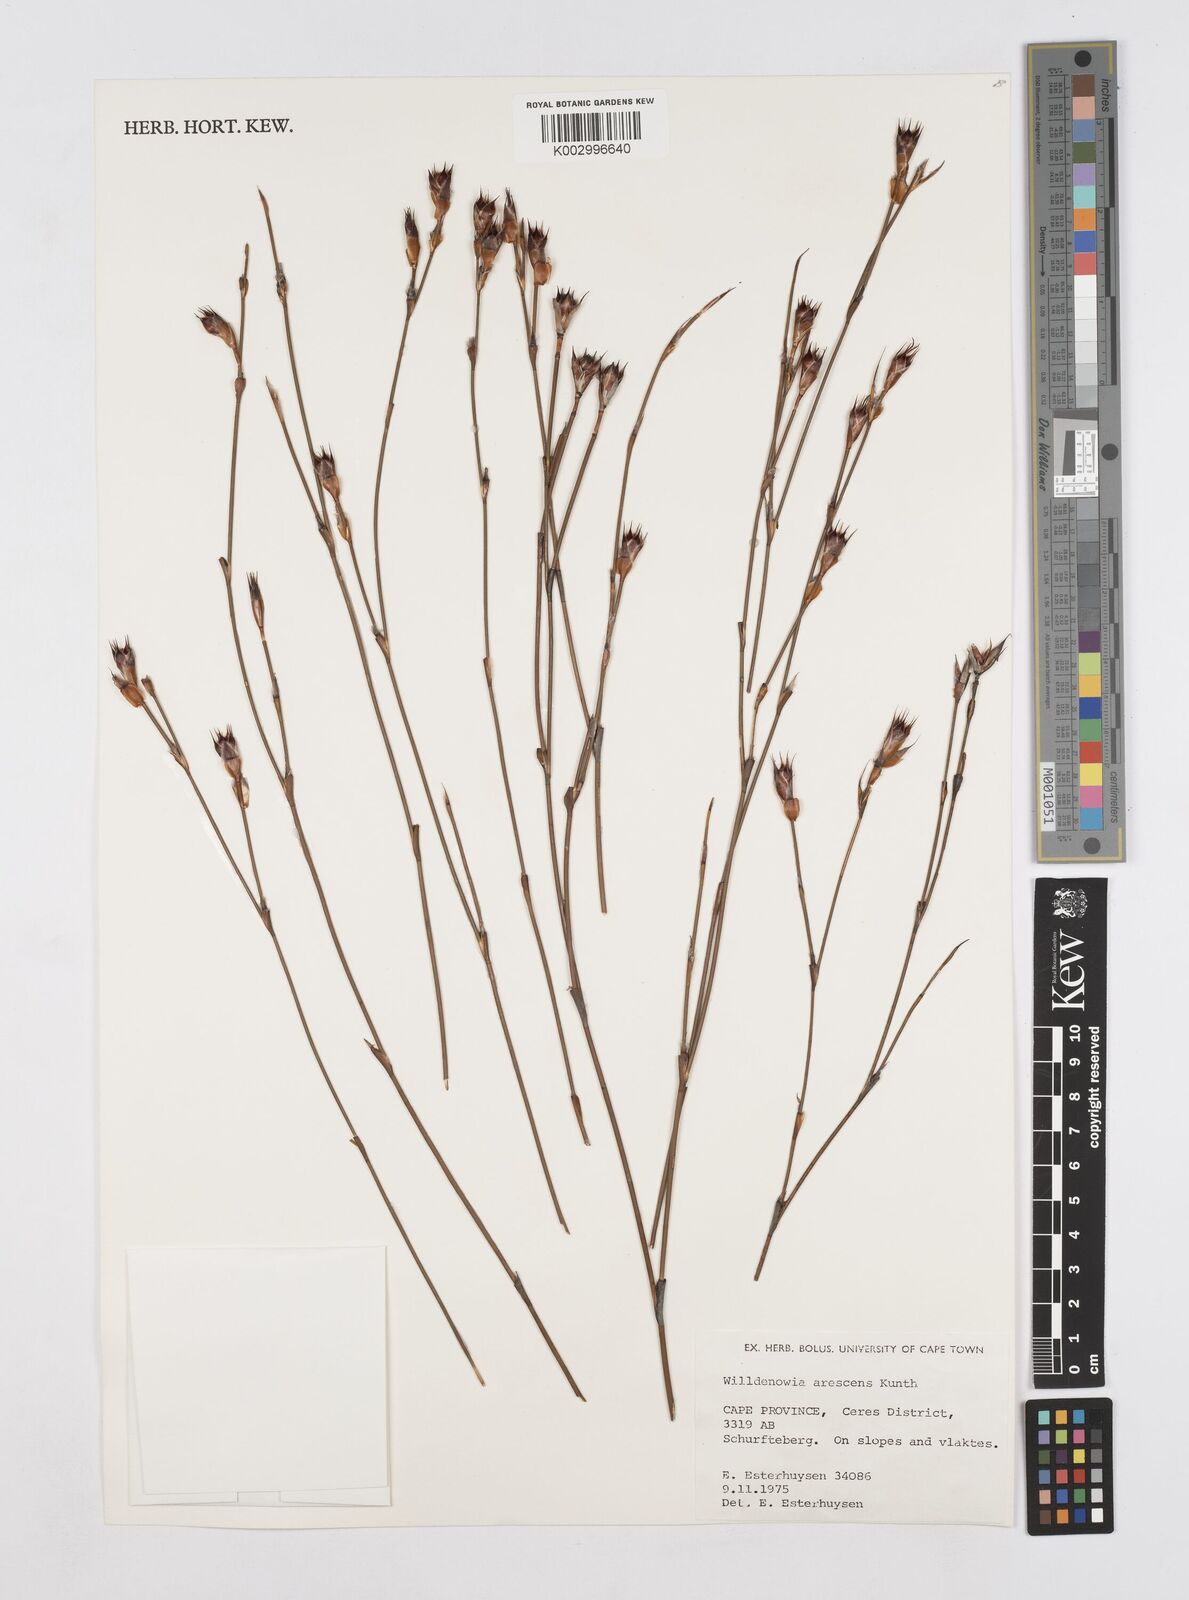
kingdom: Plantae
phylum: Tracheophyta
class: Liliopsida
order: Poales
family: Restionaceae
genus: Willdenowia
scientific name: Willdenowia arescens
